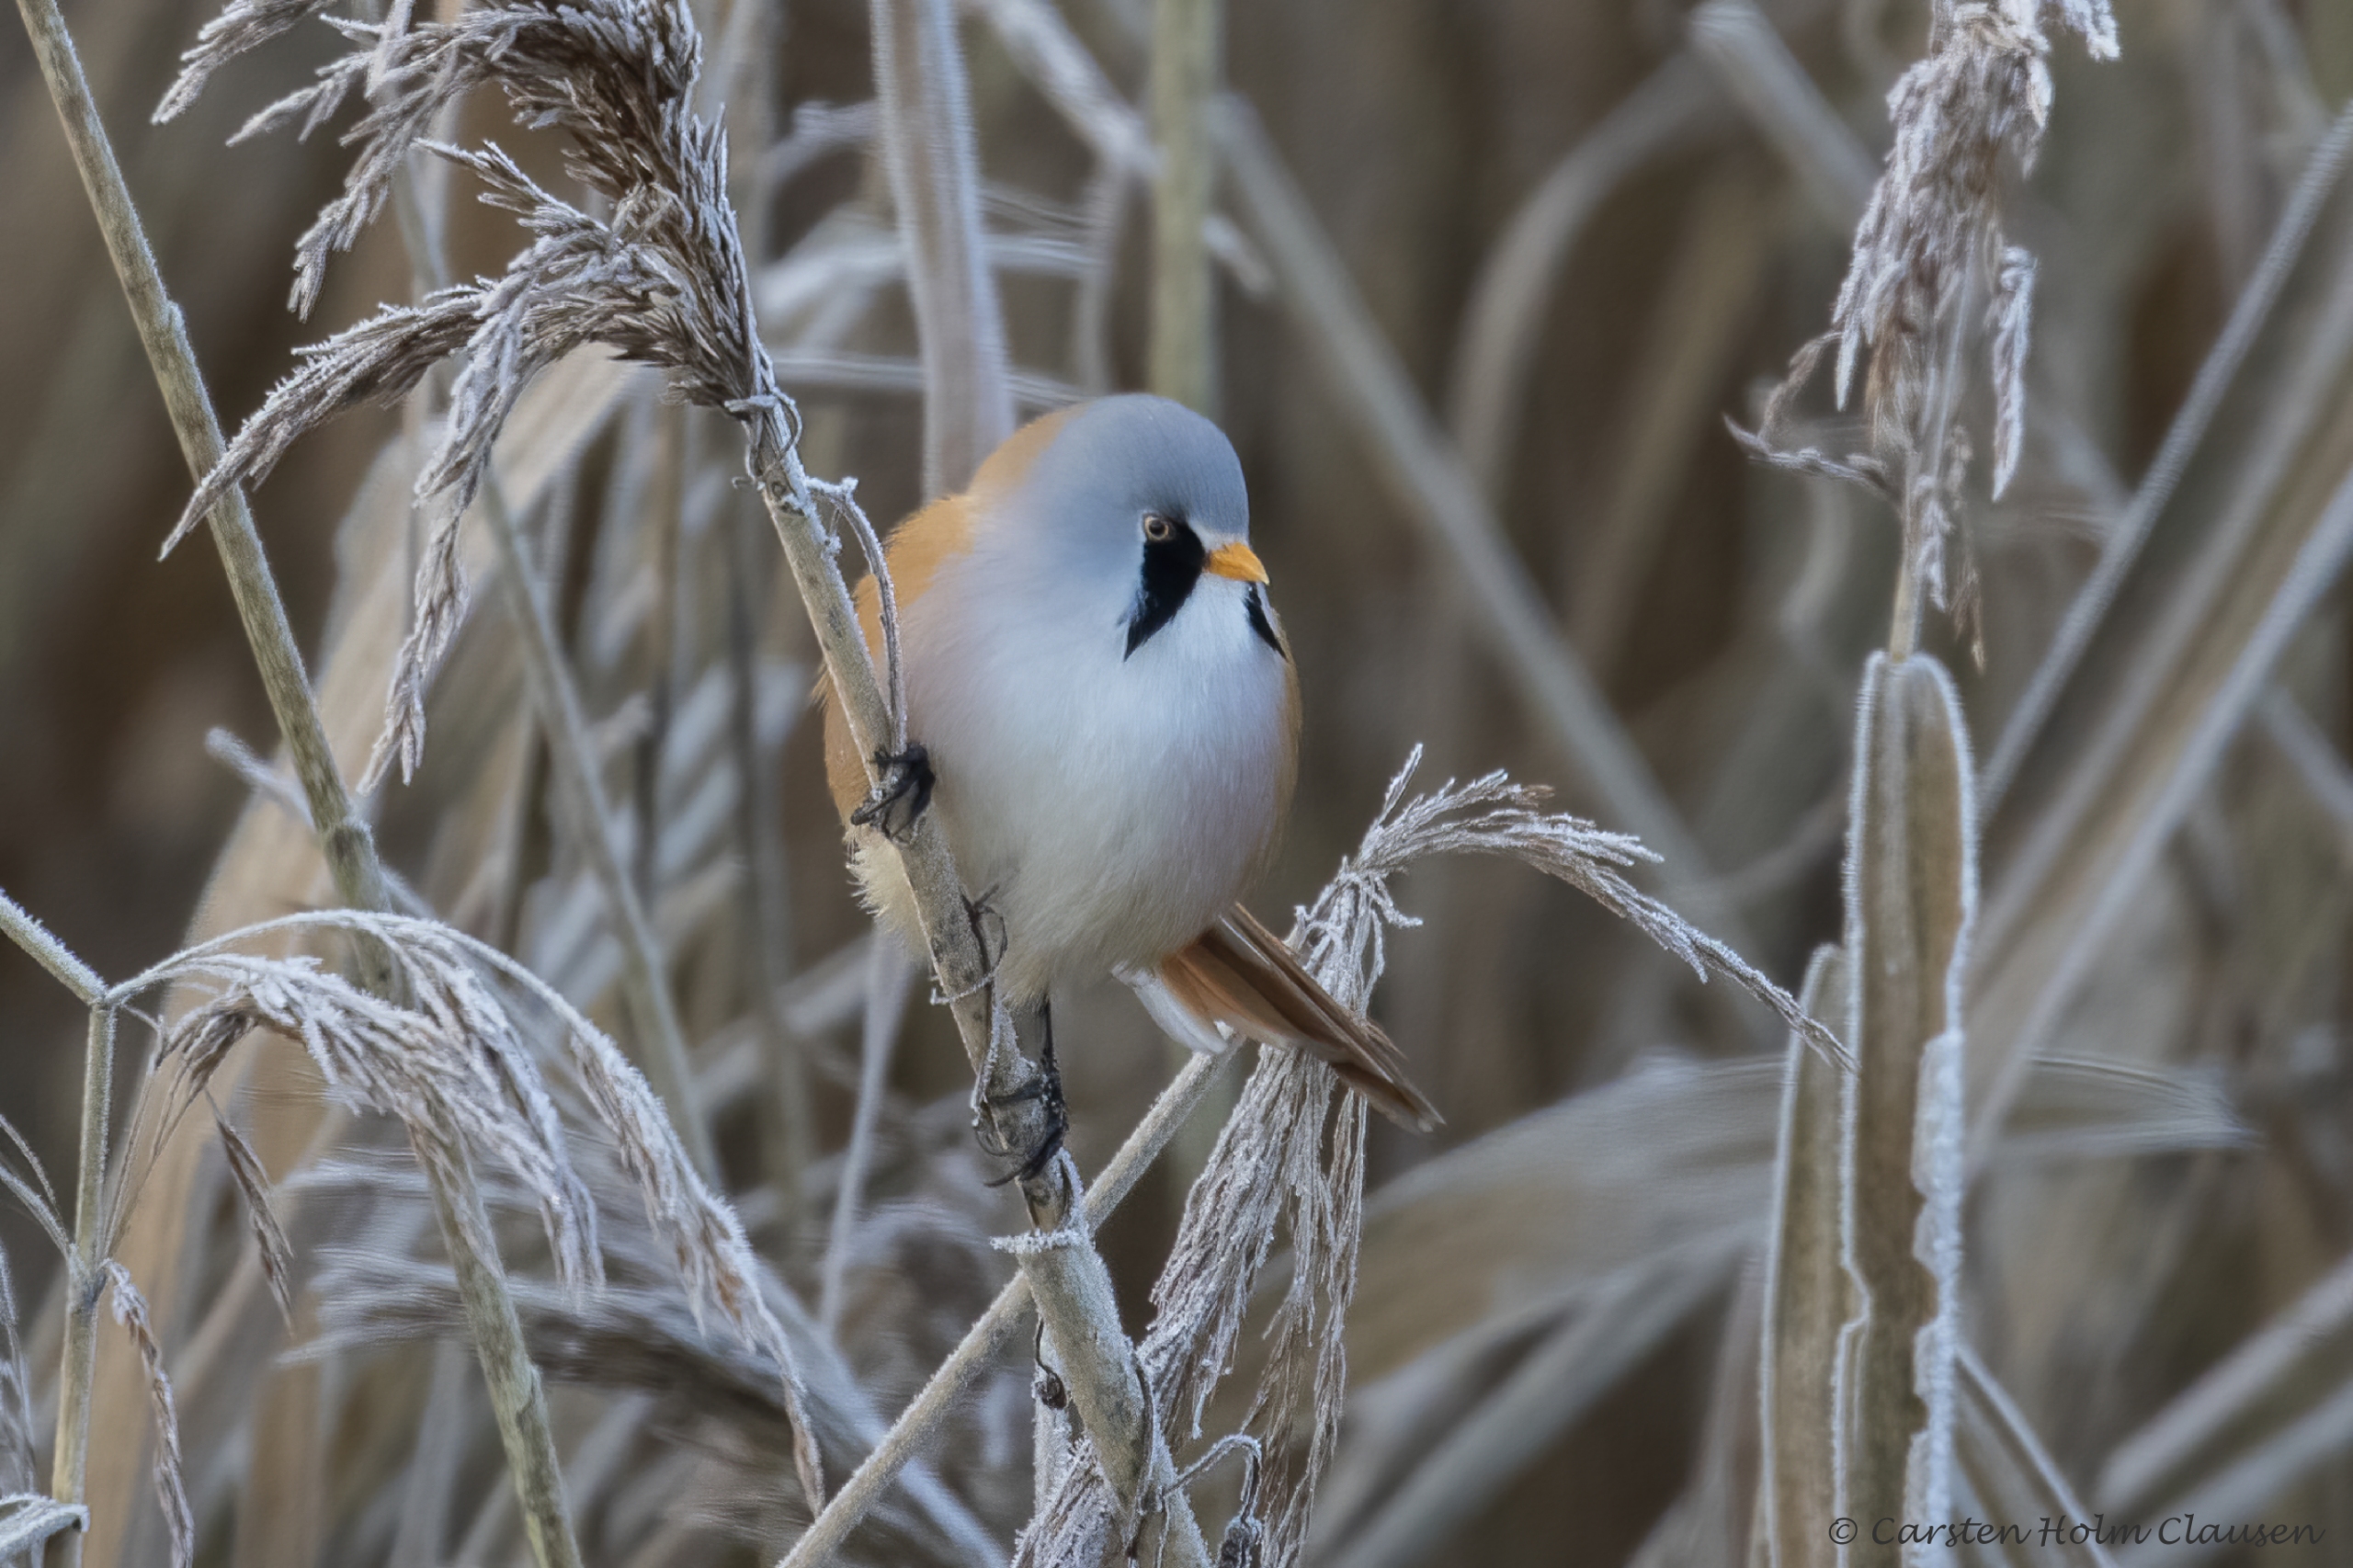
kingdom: Animalia
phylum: Chordata
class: Aves
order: Passeriformes
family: Panuridae
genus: Panurus
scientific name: Panurus biarmicus
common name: Skægmejse
